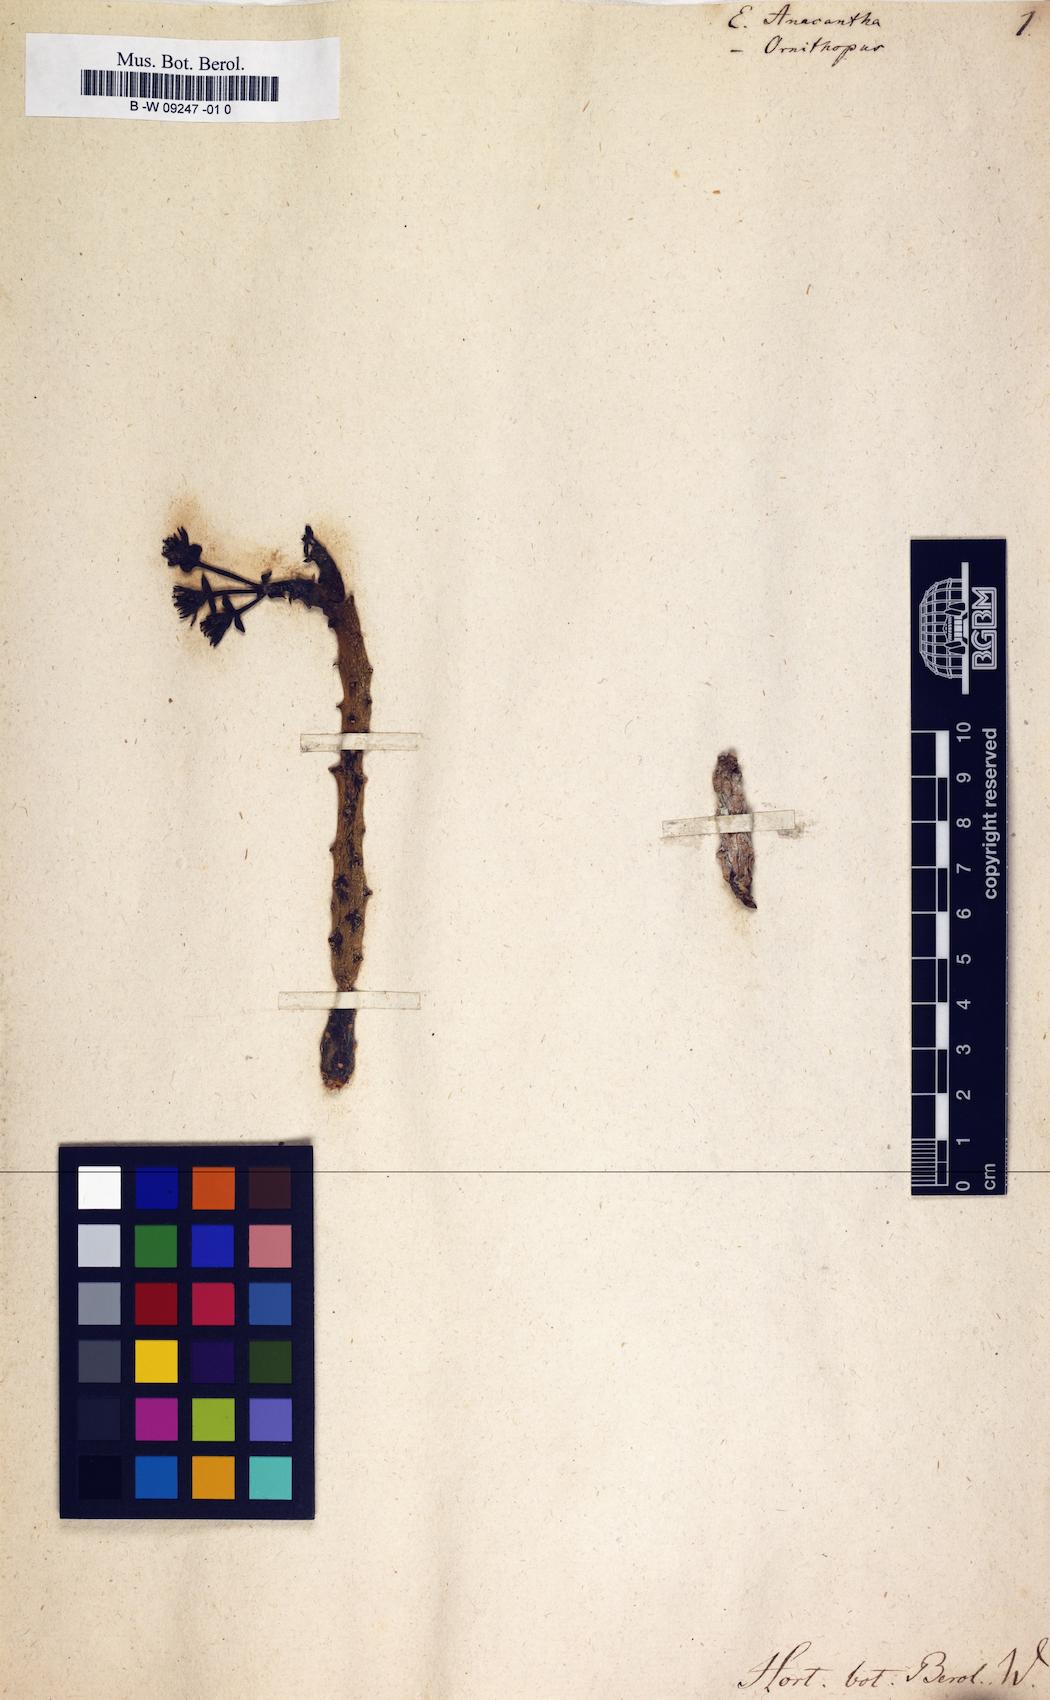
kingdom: Plantae
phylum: Tracheophyta
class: Magnoliopsida
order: Malpighiales
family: Euphorbiaceae
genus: Euphorbia
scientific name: Euphorbia patula
